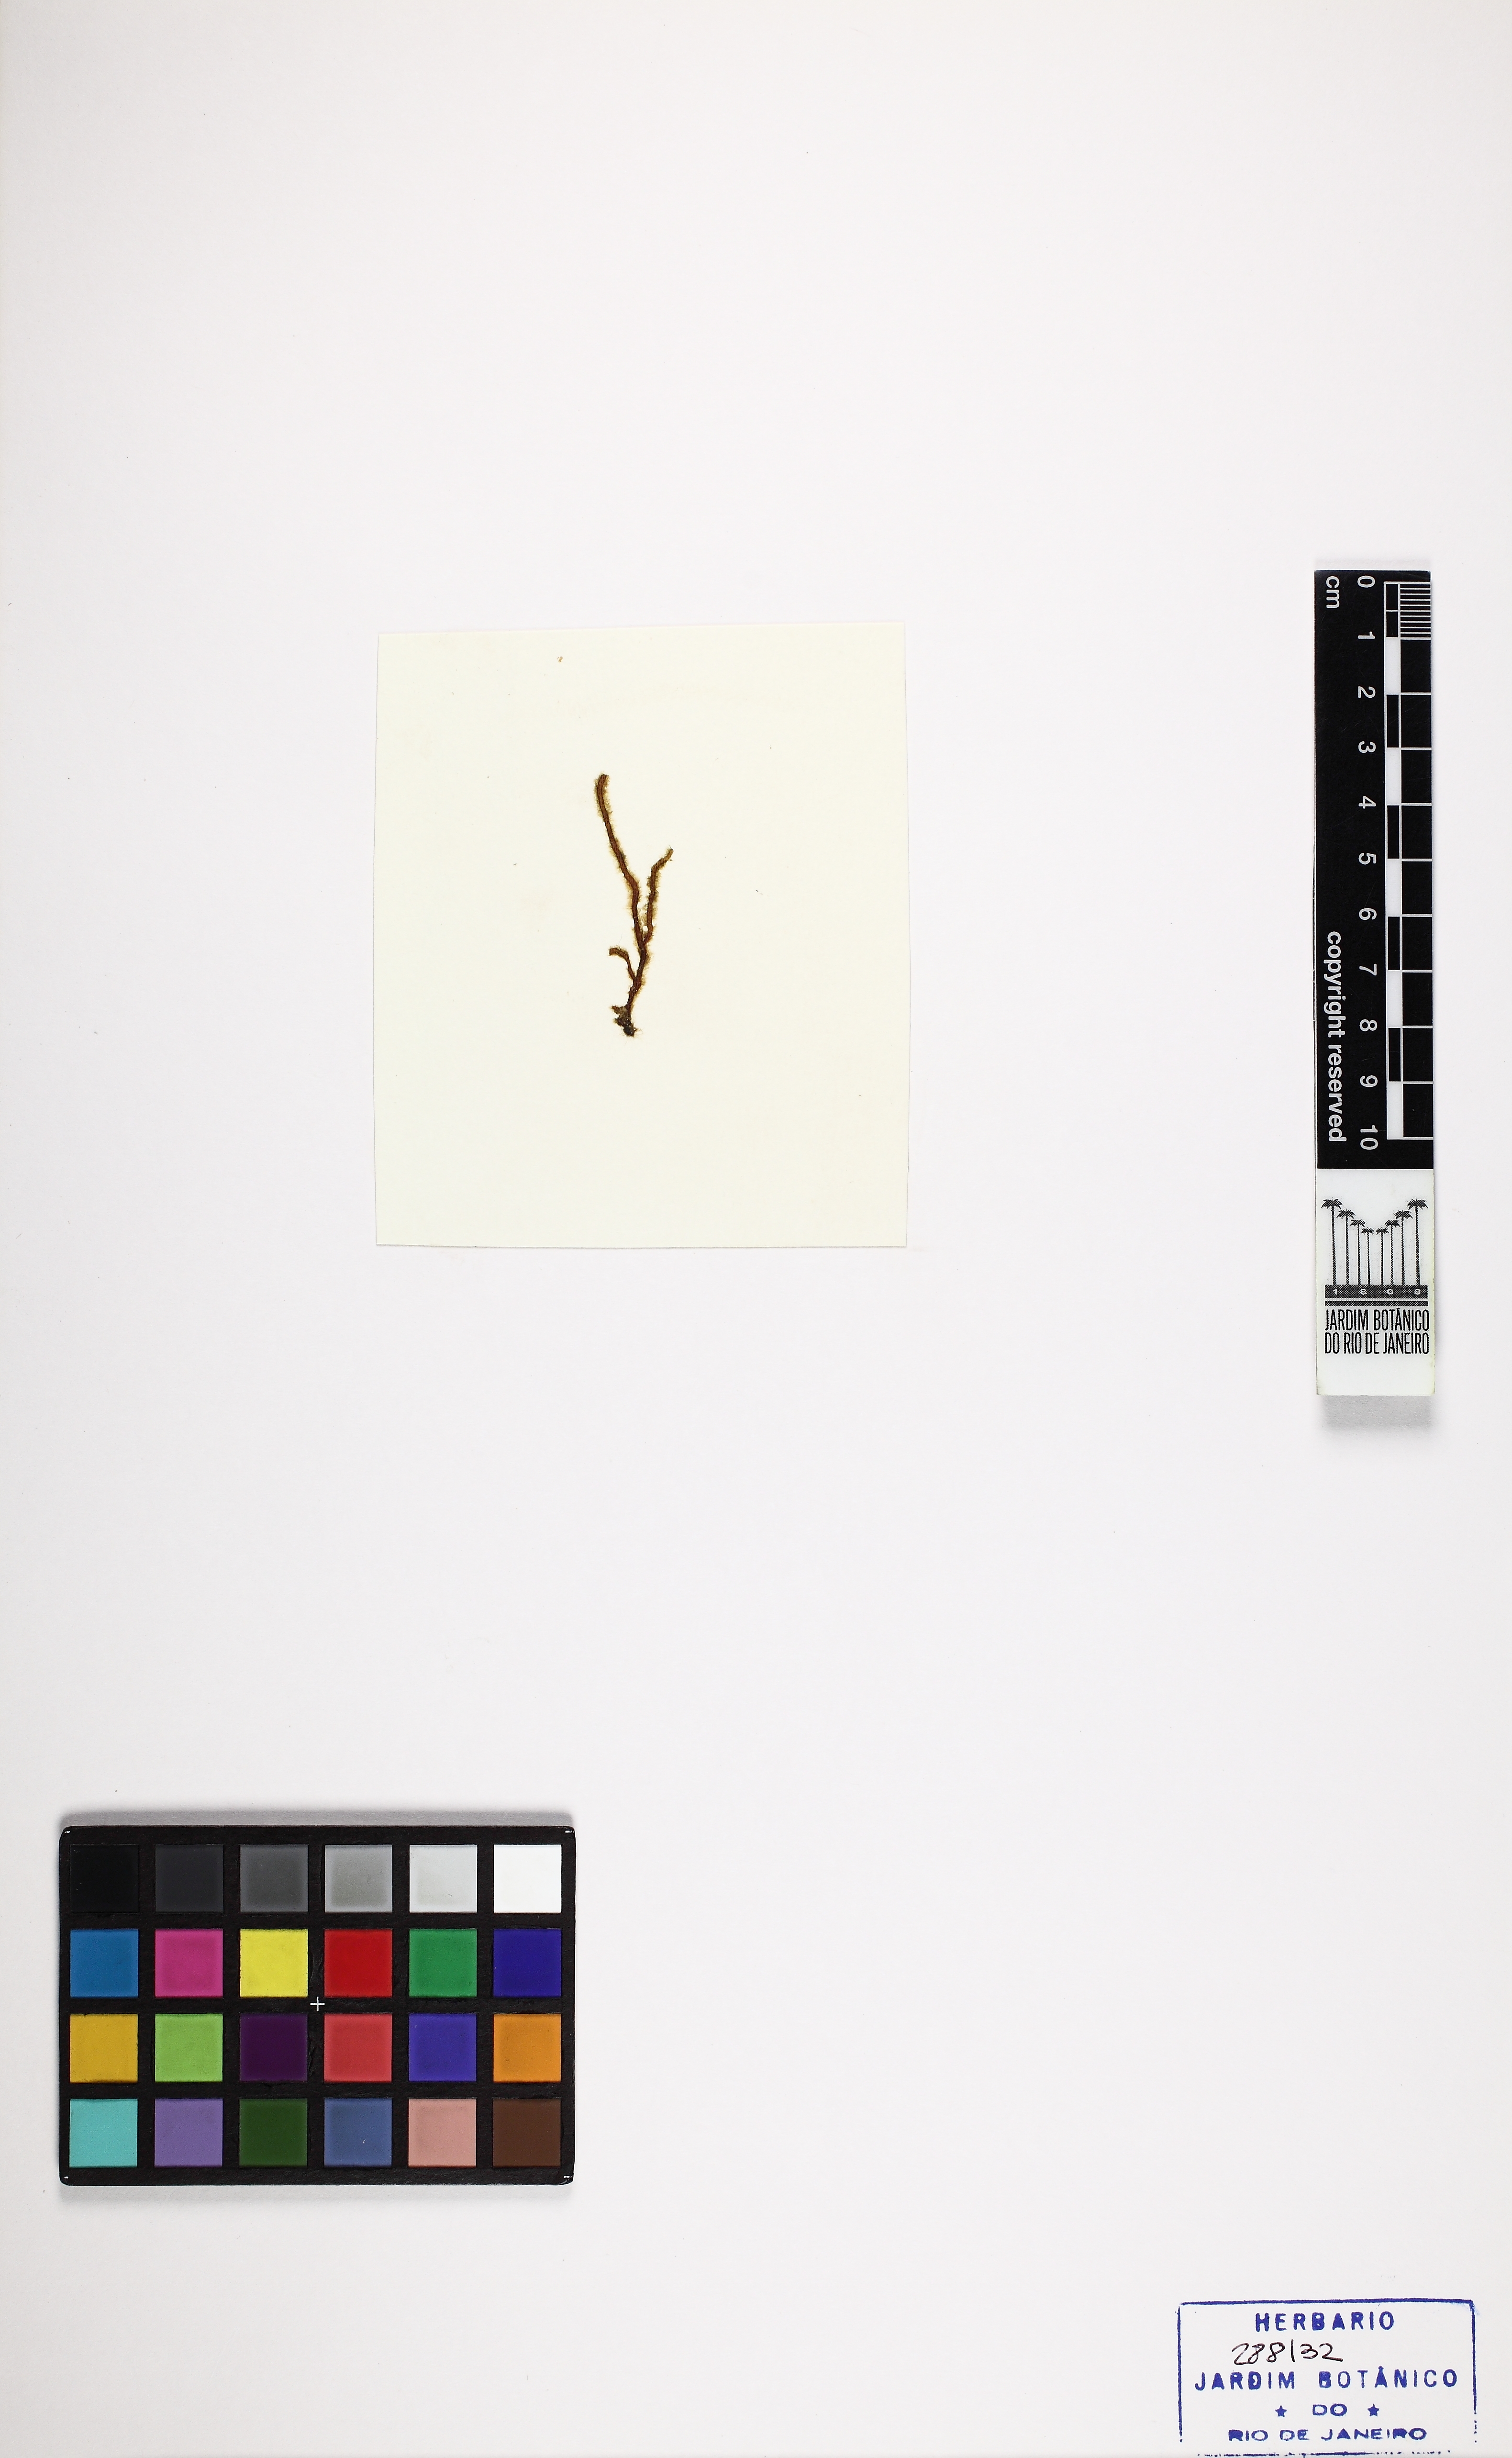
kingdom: Chromista
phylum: Ochrophyta
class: Phaeophyceae
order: Ectocarpales
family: Chordariaceae
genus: Levringia
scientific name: Levringia brasiliensis
